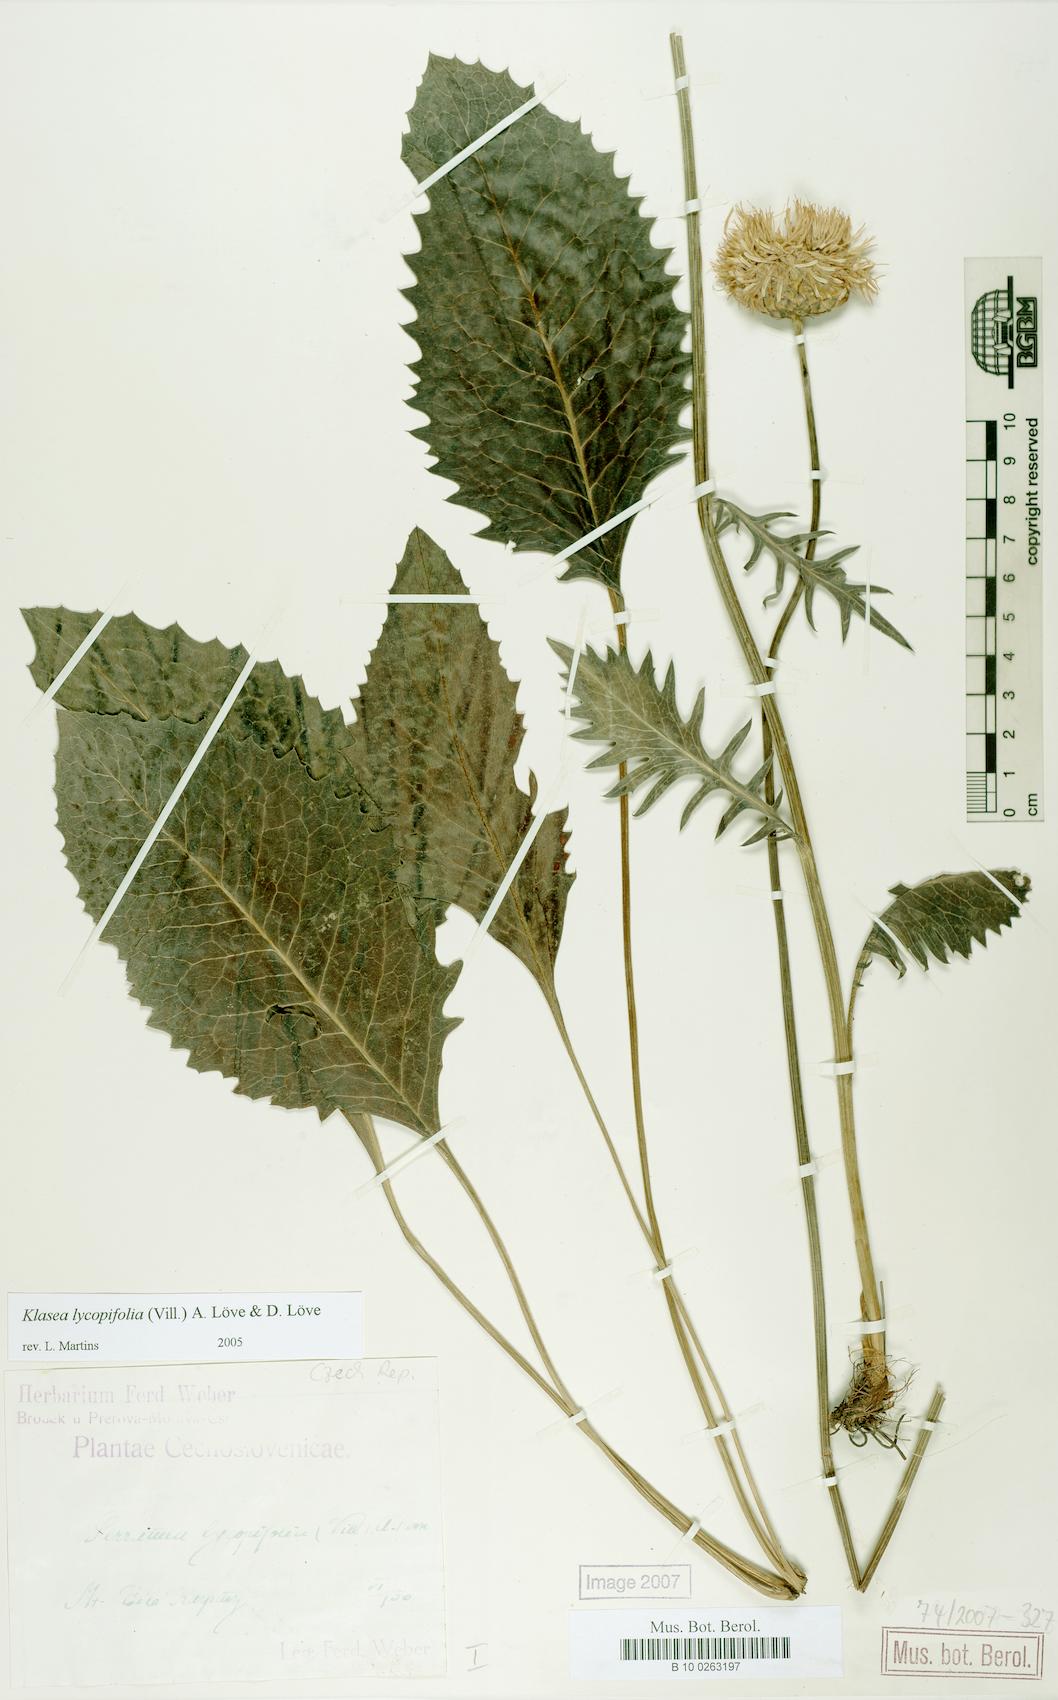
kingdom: Plantae
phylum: Tracheophyta
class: Magnoliopsida
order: Asterales
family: Asteraceae
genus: Klasea
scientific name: Klasea lycopifolia
